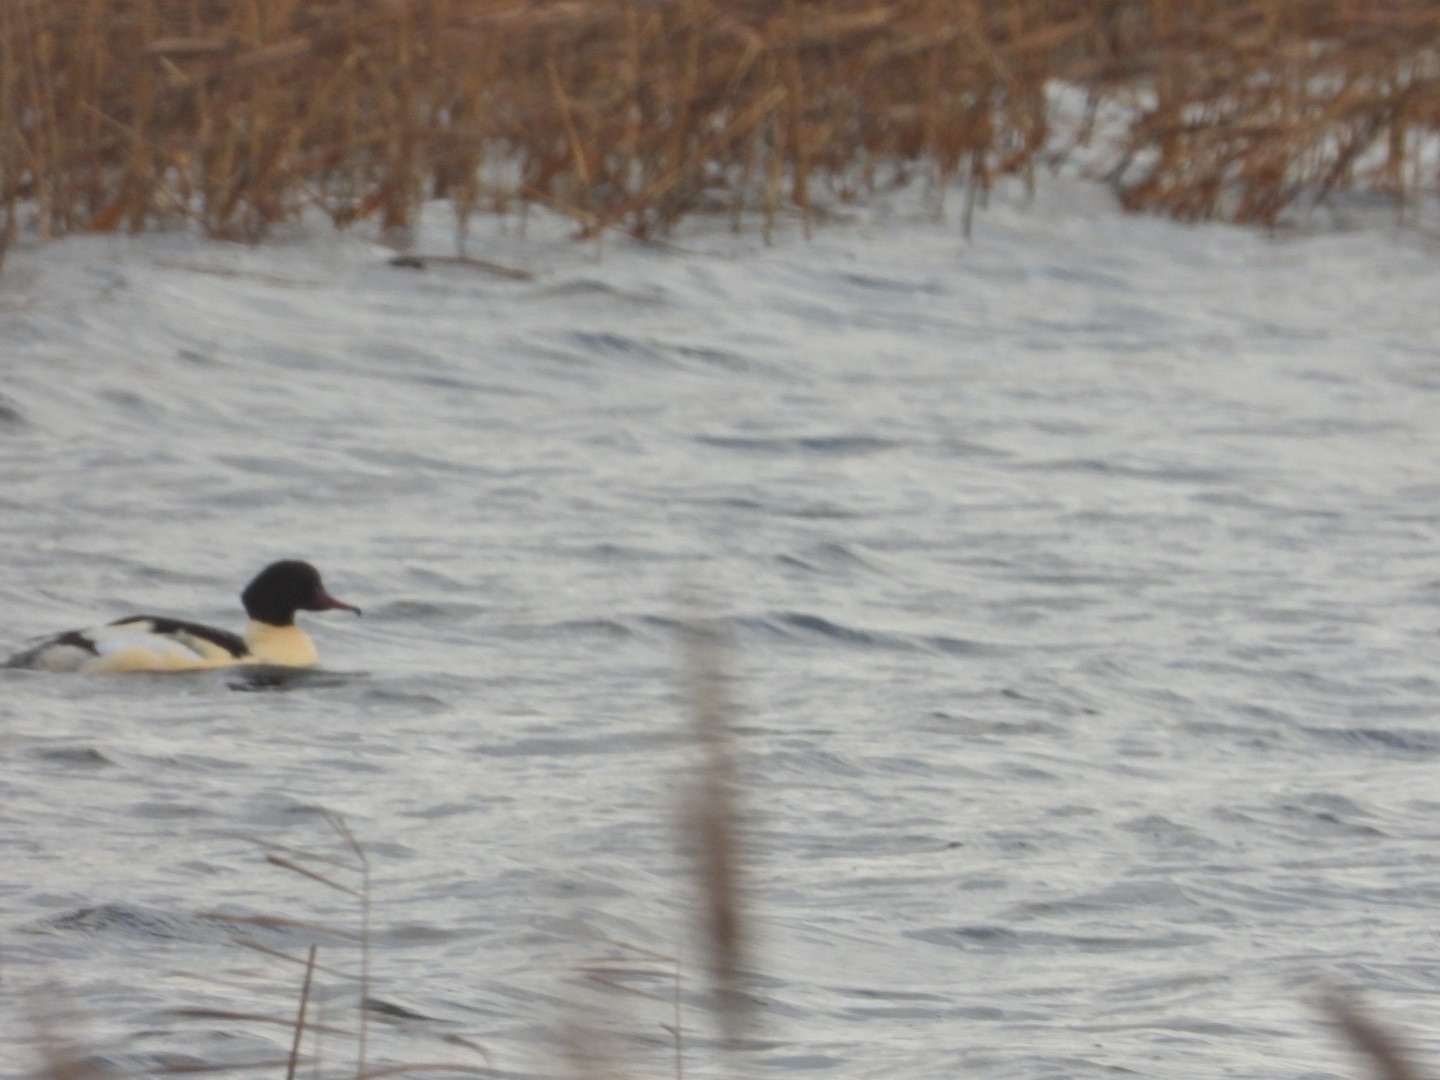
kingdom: Animalia
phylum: Chordata
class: Aves
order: Anseriformes
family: Anatidae
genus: Mergus
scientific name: Mergus merganser
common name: Stor skallesluger
